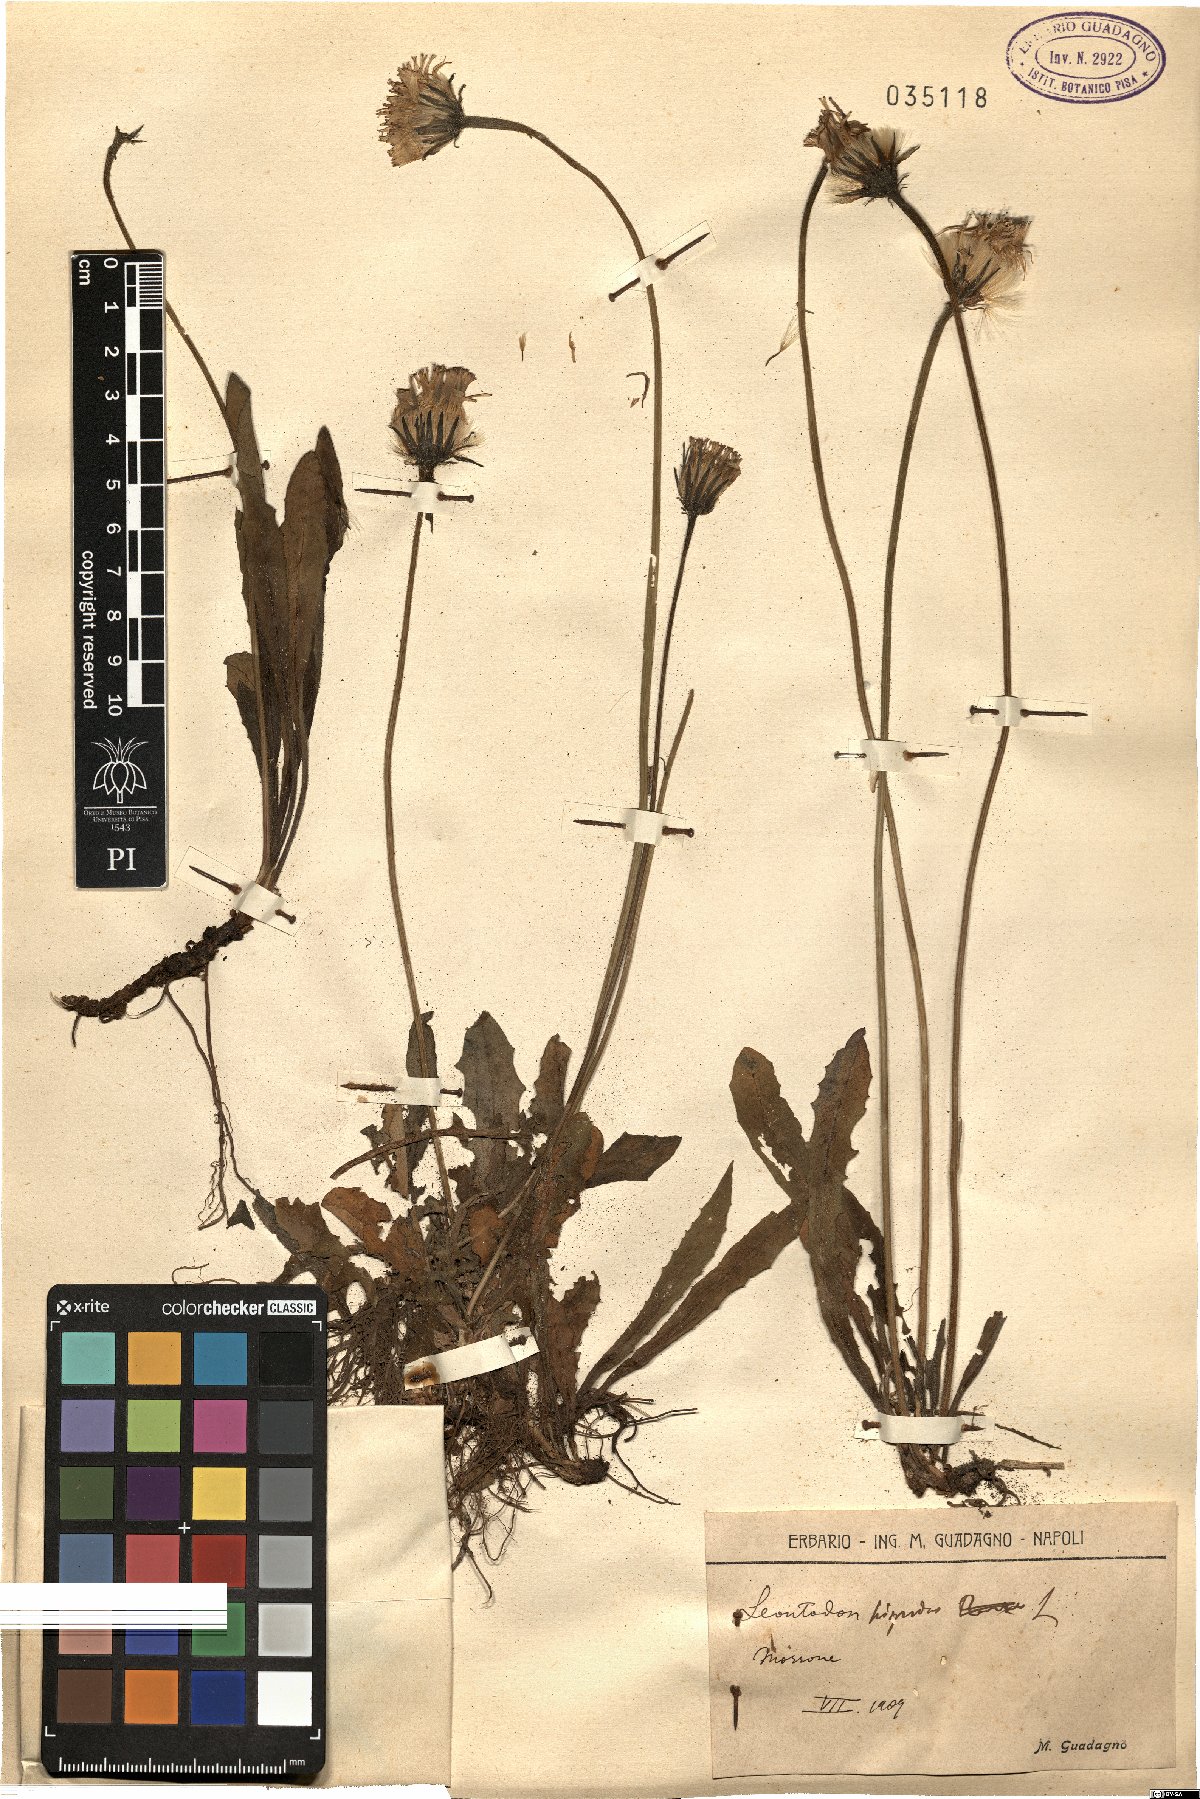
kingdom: Plantae
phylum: Tracheophyta
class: Magnoliopsida
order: Asterales
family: Asteraceae
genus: Leontodon
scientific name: Leontodon hispidus
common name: Rough hawkbit
